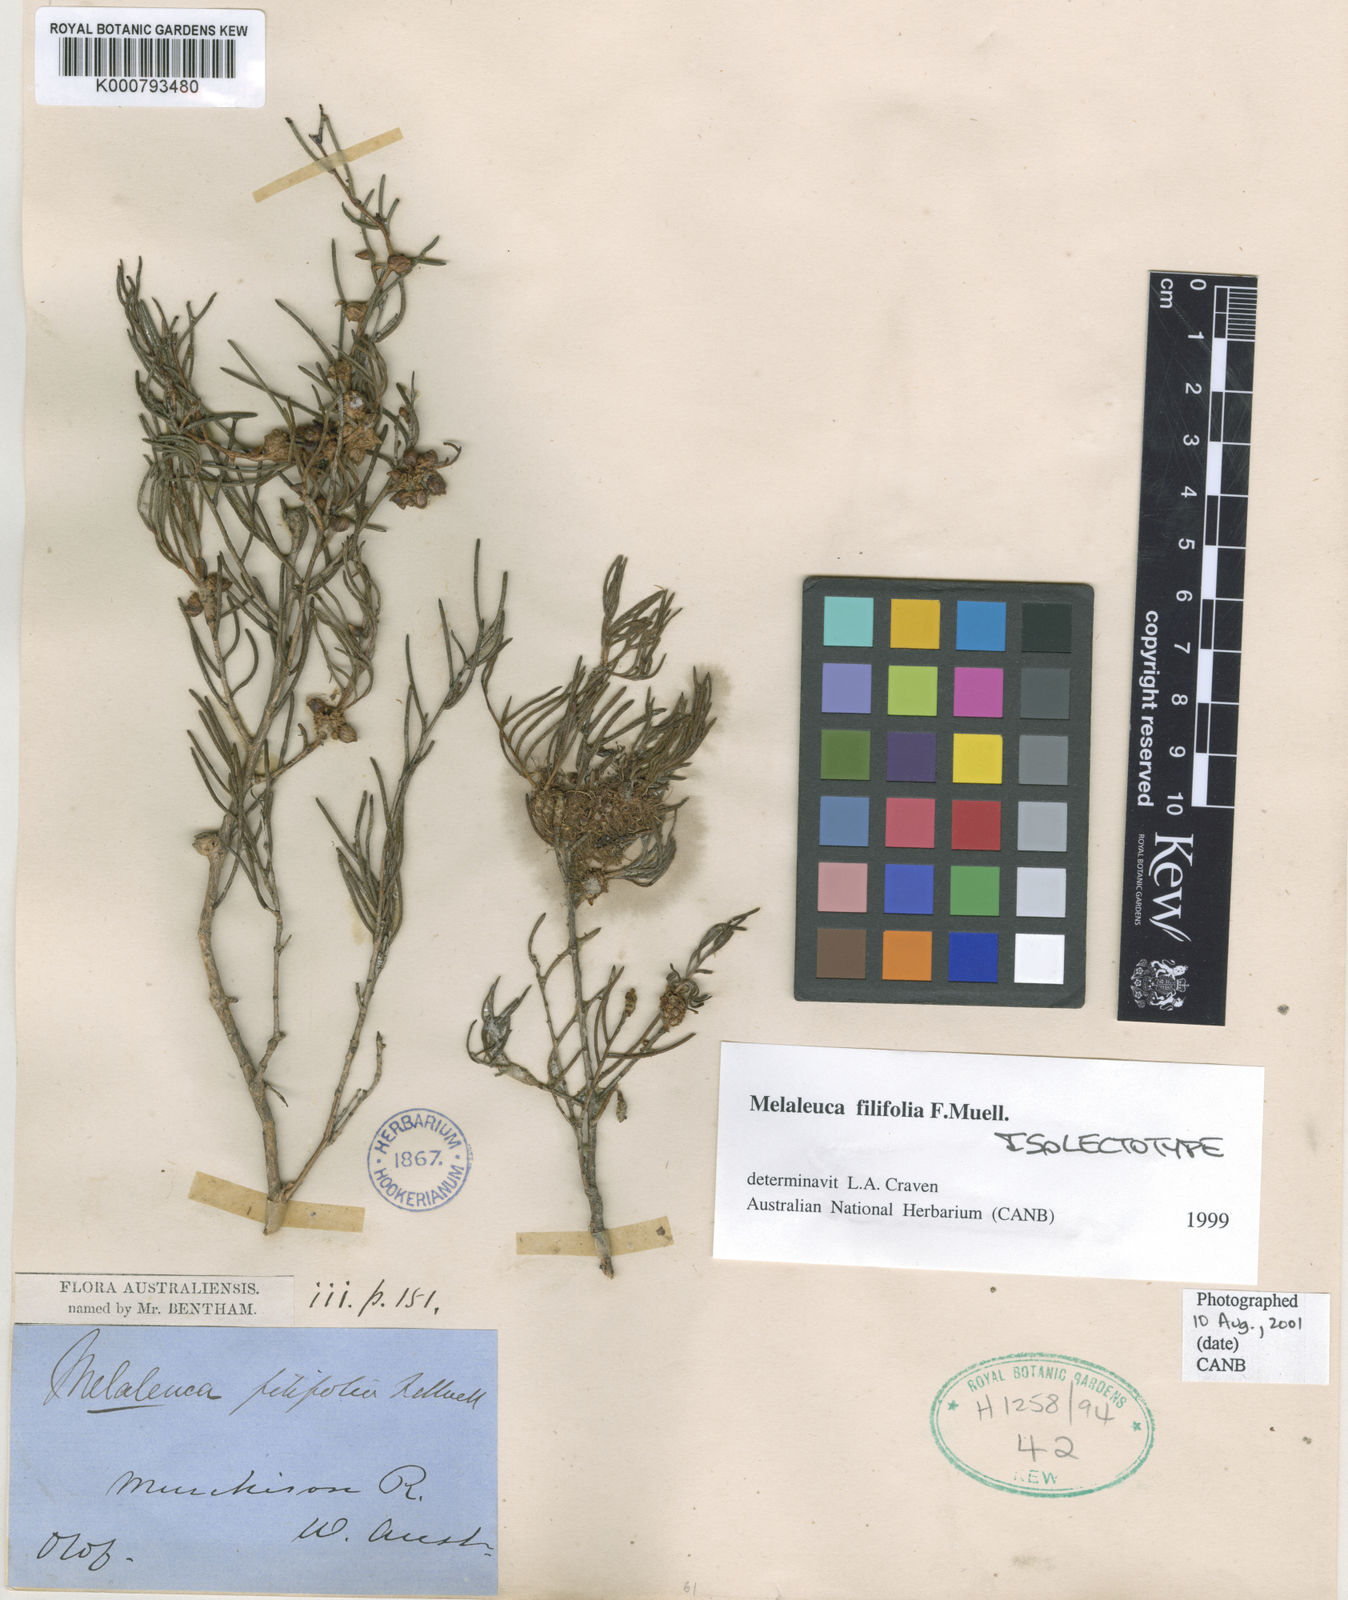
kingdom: Plantae
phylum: Tracheophyta
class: Magnoliopsida
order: Myrtales
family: Myrtaceae
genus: Melaleuca
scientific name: Melaleuca filifolia
